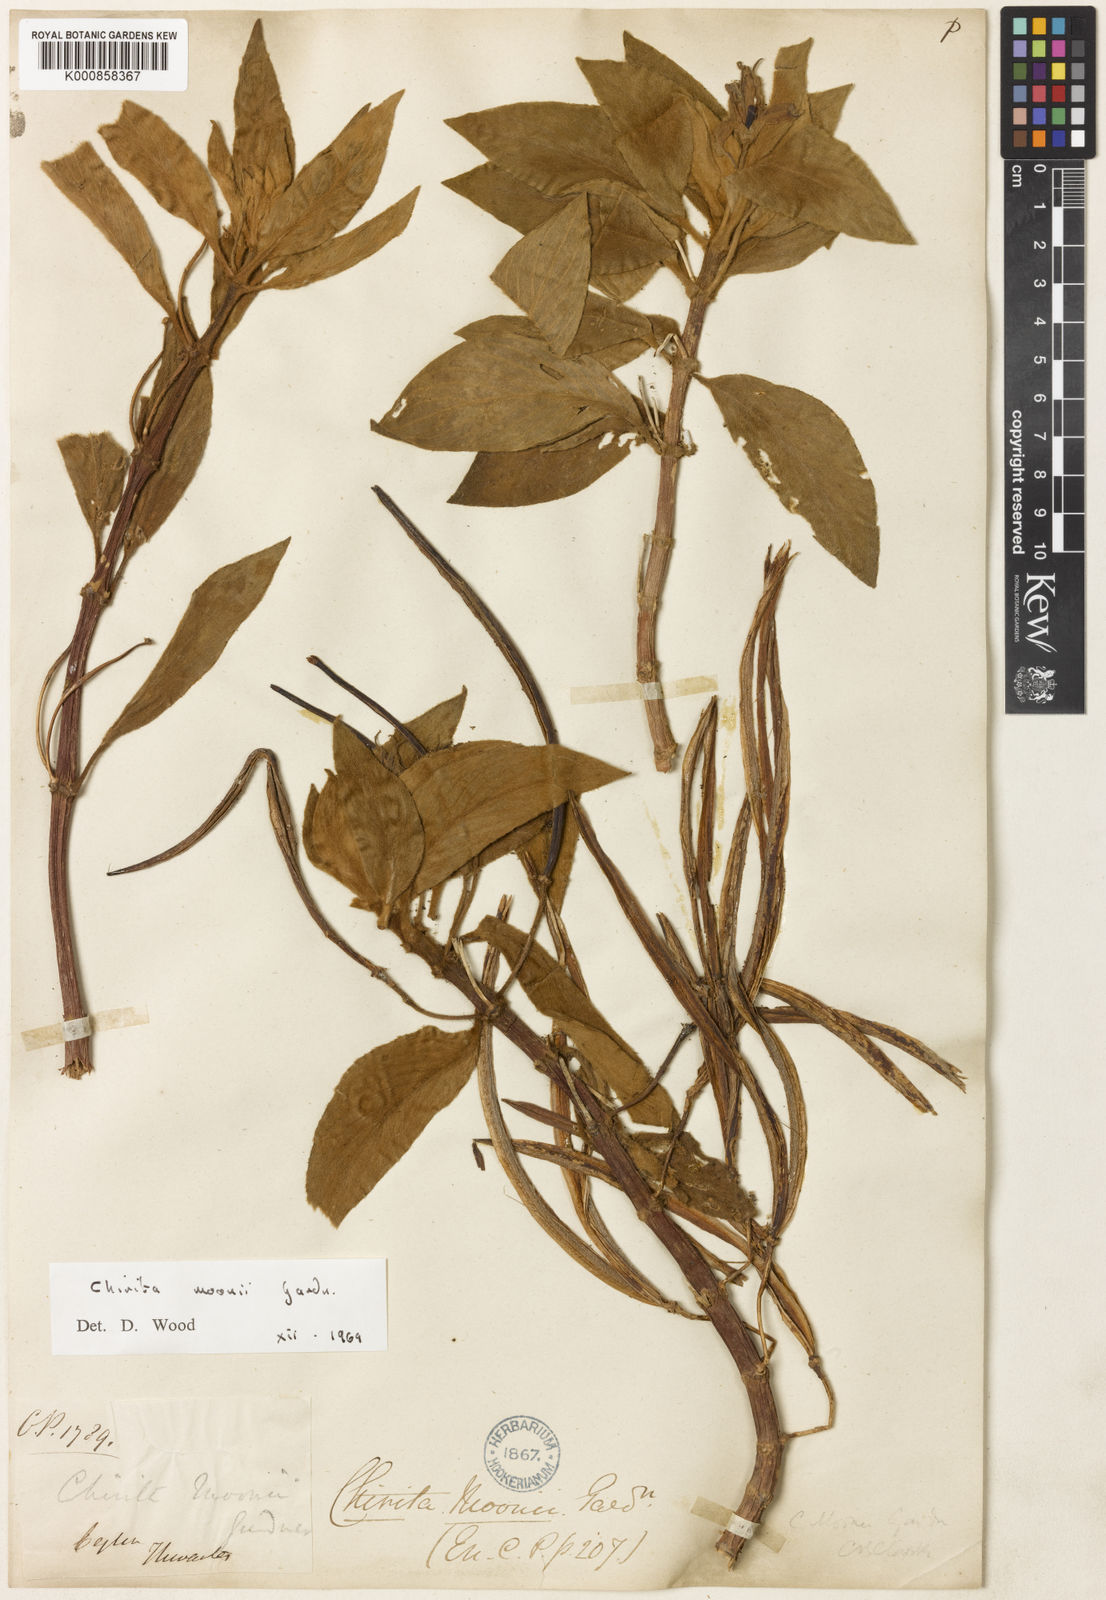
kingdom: Plantae
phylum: Tracheophyta
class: Magnoliopsida
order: Lamiales
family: Gesneriaceae
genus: Henckelia
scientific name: Henckelia moonii
